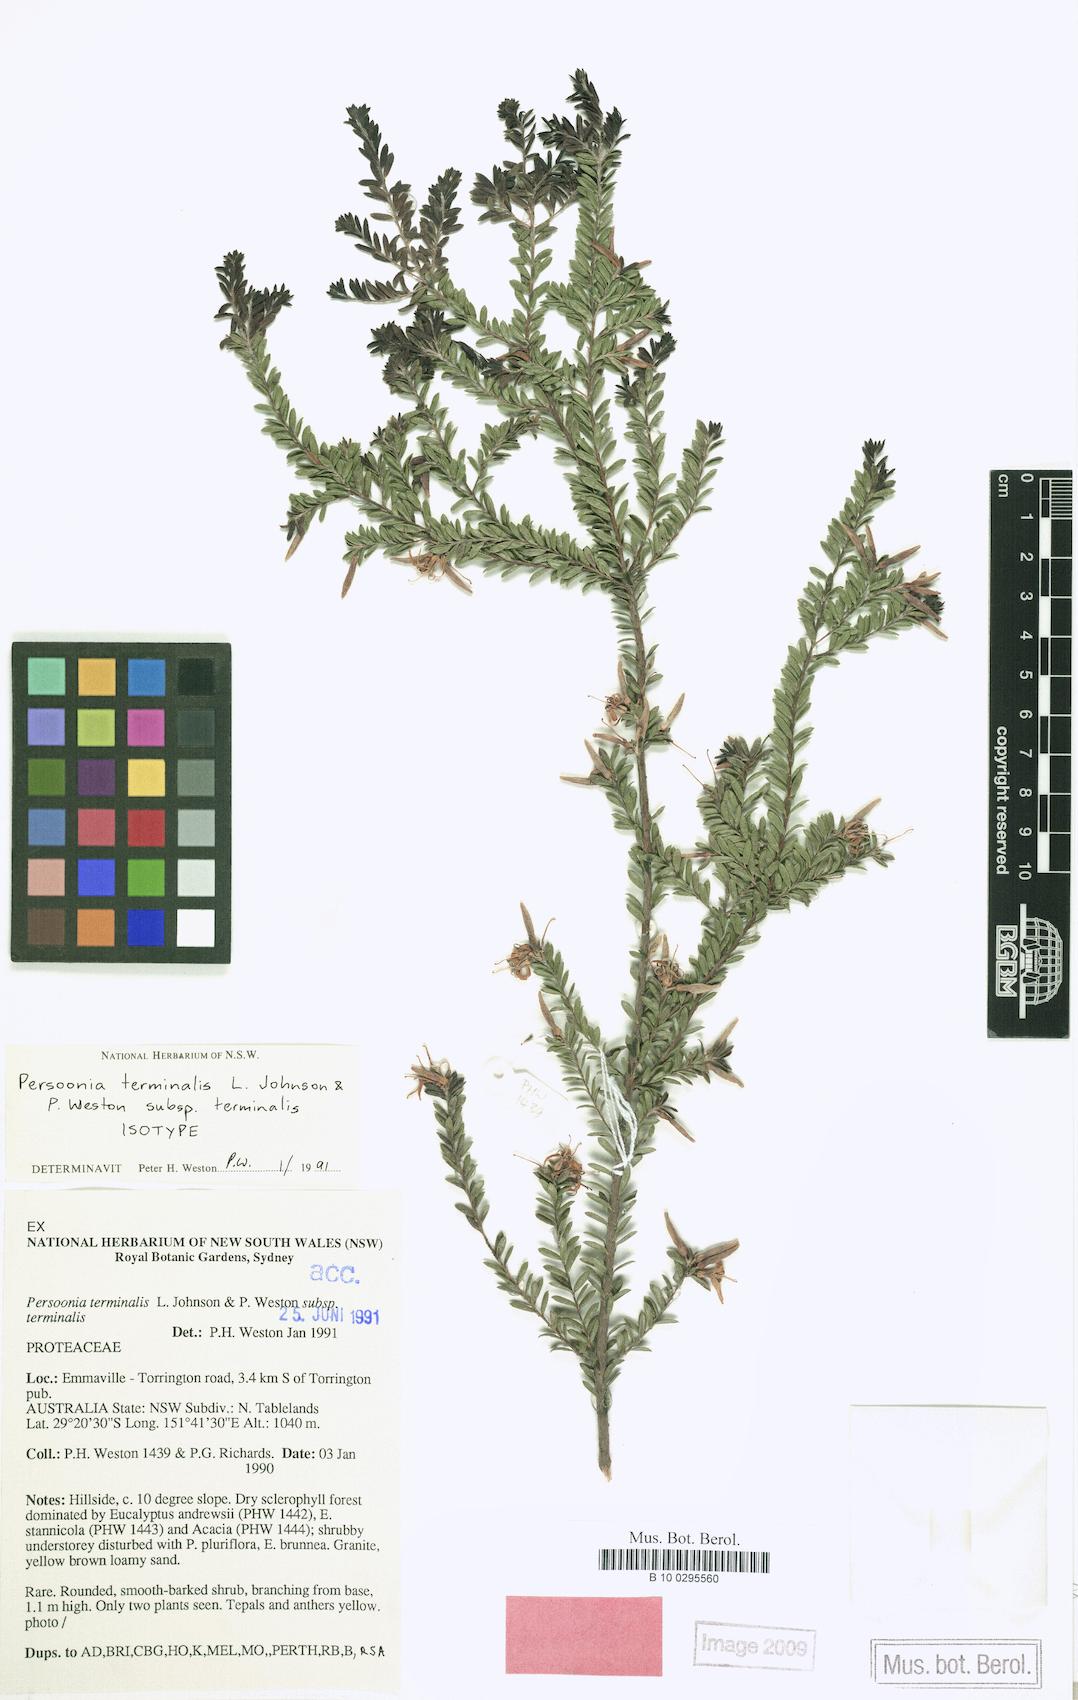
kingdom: Plantae
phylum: Tracheophyta
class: Magnoliopsida
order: Proteales
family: Proteaceae
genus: Persoonia
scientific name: Persoonia terminalis
